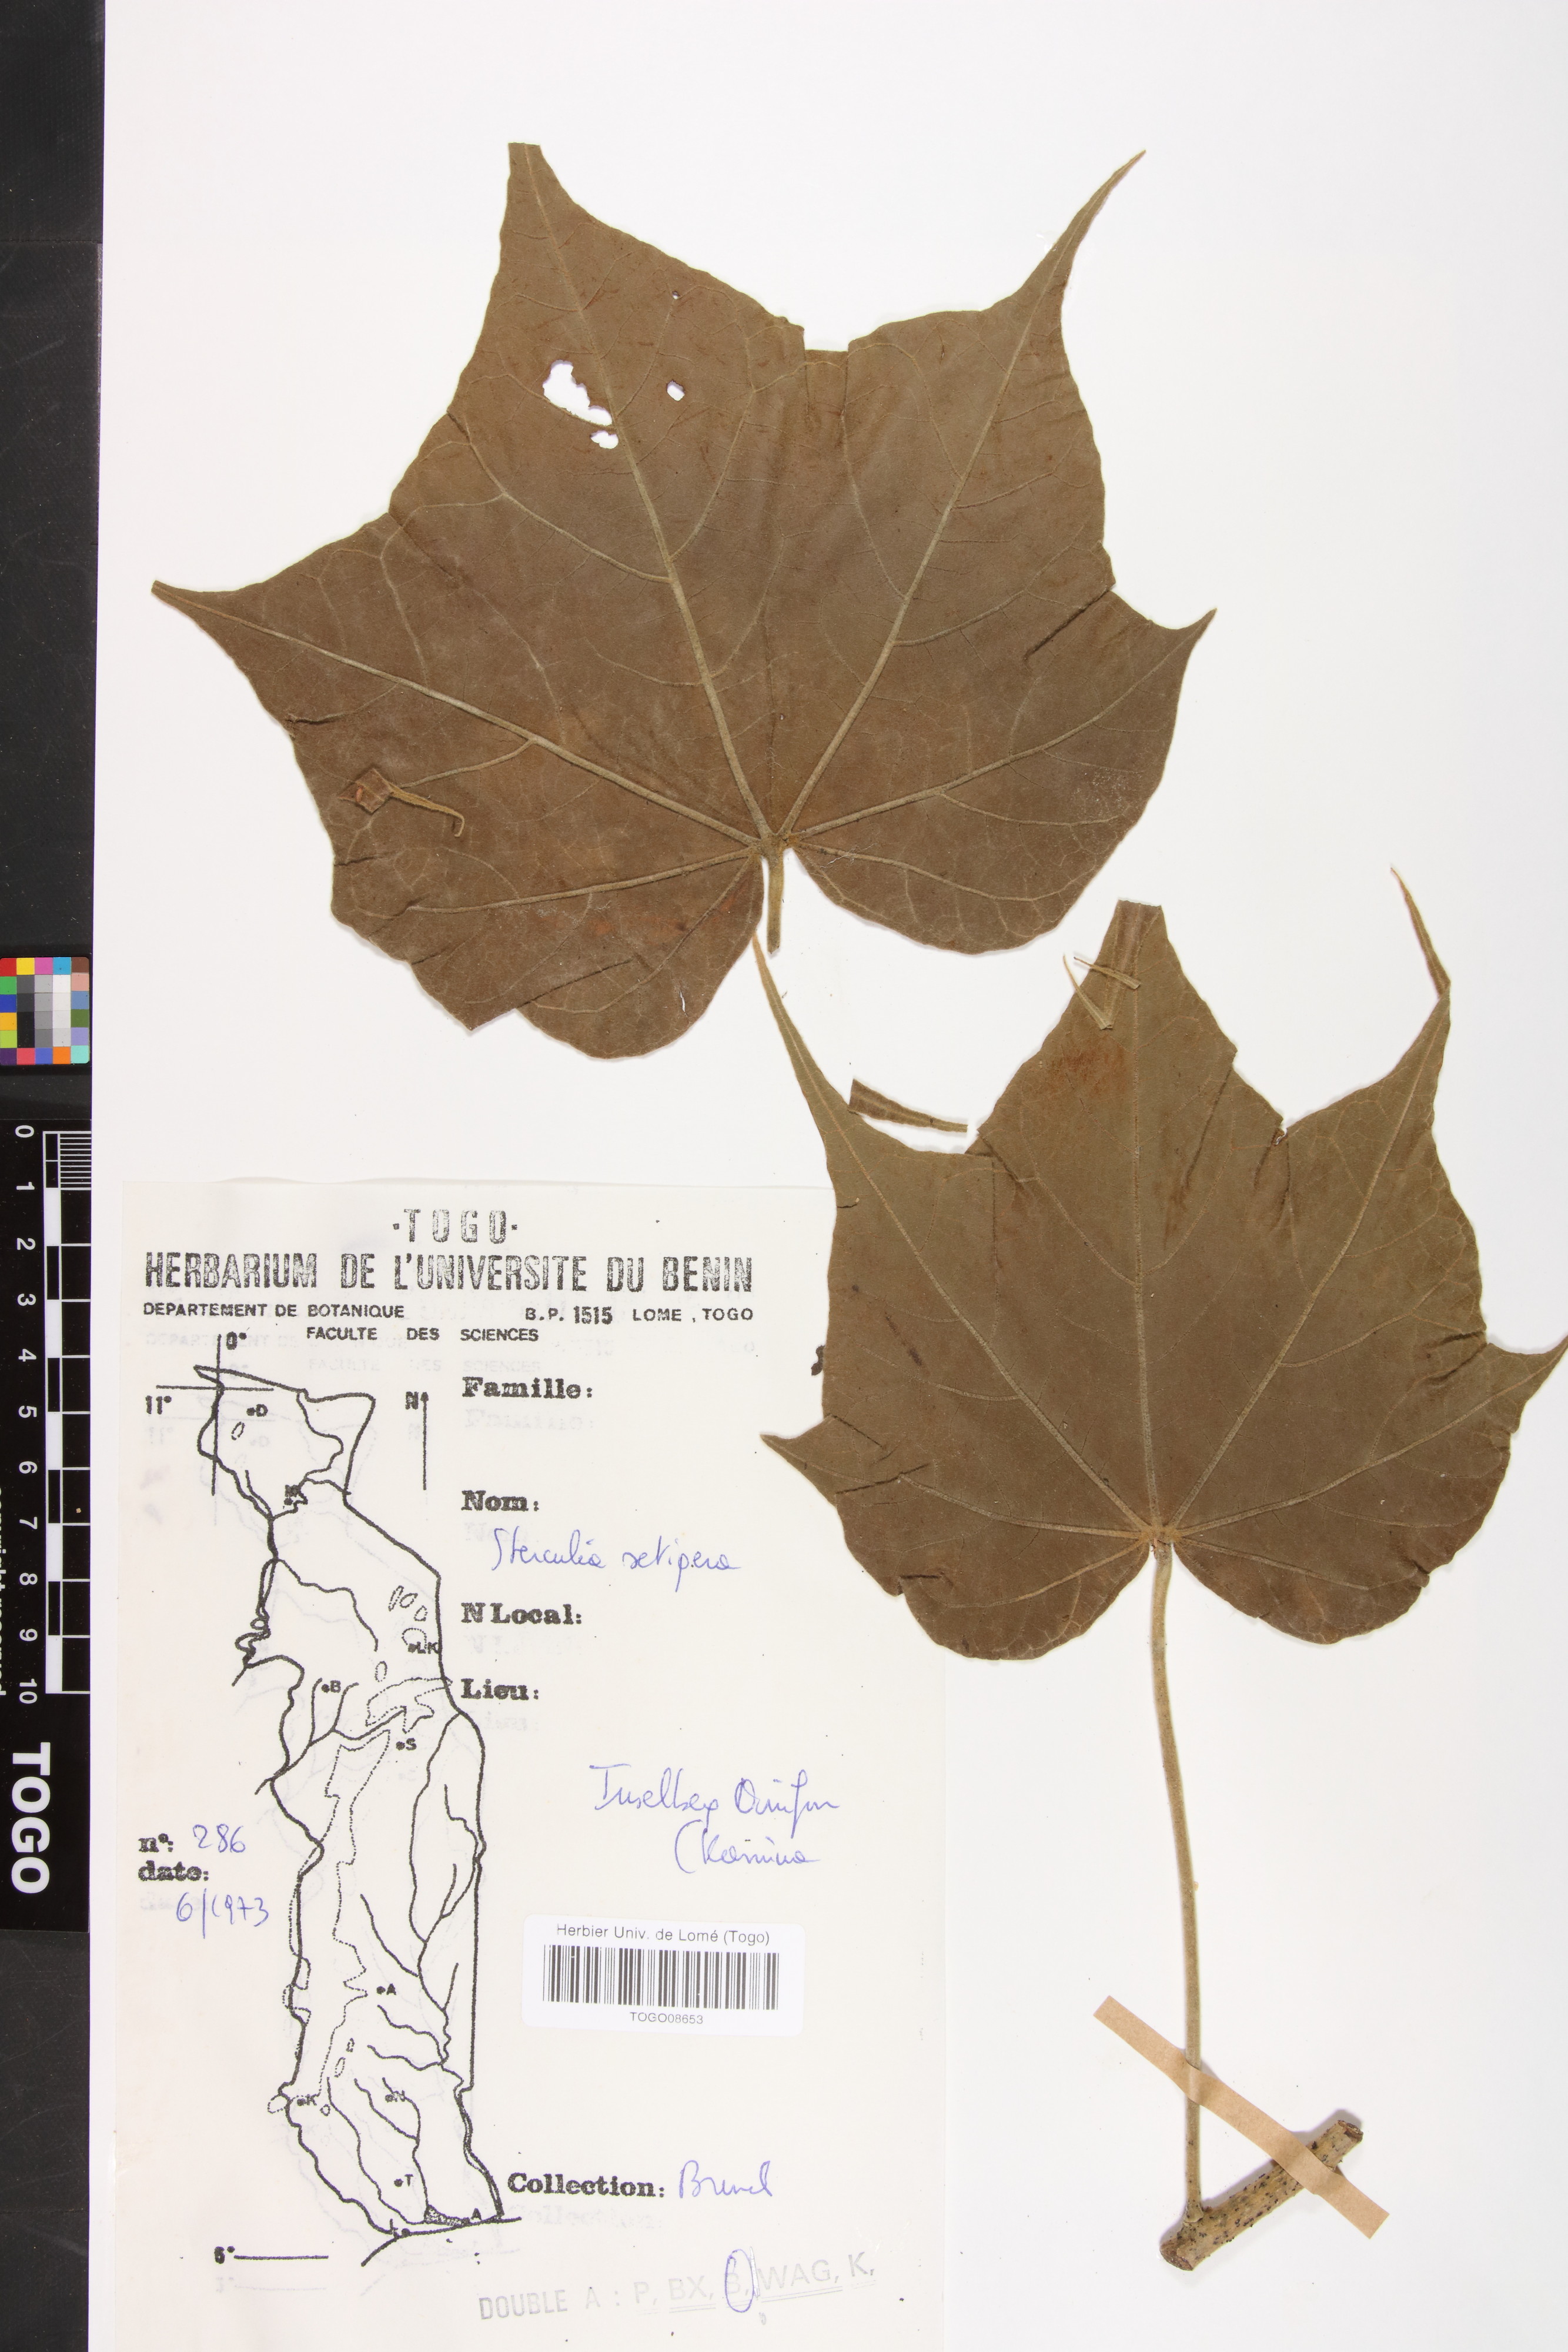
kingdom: Plantae
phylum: Tracheophyta
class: Magnoliopsida
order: Malvales
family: Malvaceae
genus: Sterculia
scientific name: Sterculia setigera
